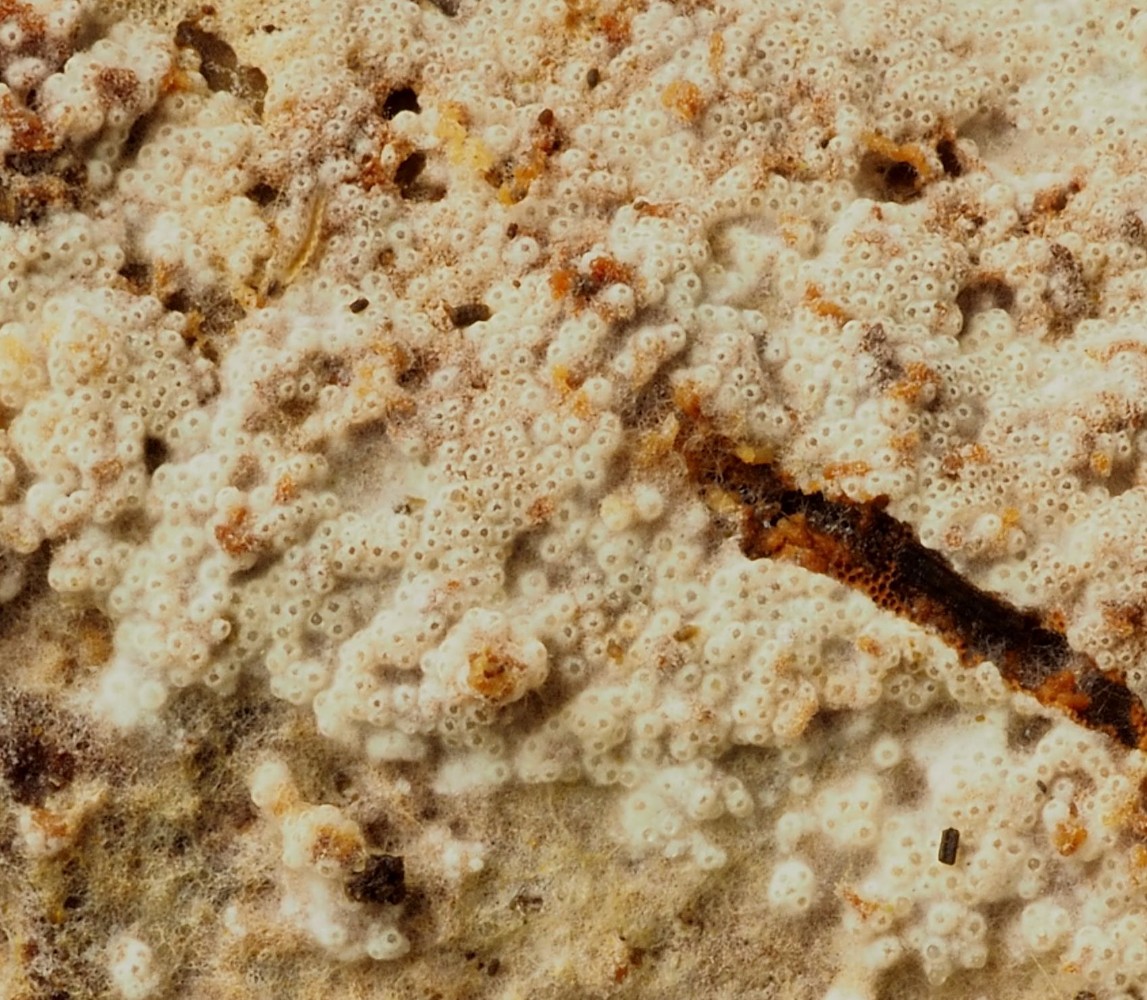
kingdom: Fungi
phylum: Ascomycota
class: Sordariomycetes
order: Hypocreales
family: Hypocreaceae
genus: Protocrea
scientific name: Protocrea farinosa
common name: krystalpore-kødkerne
